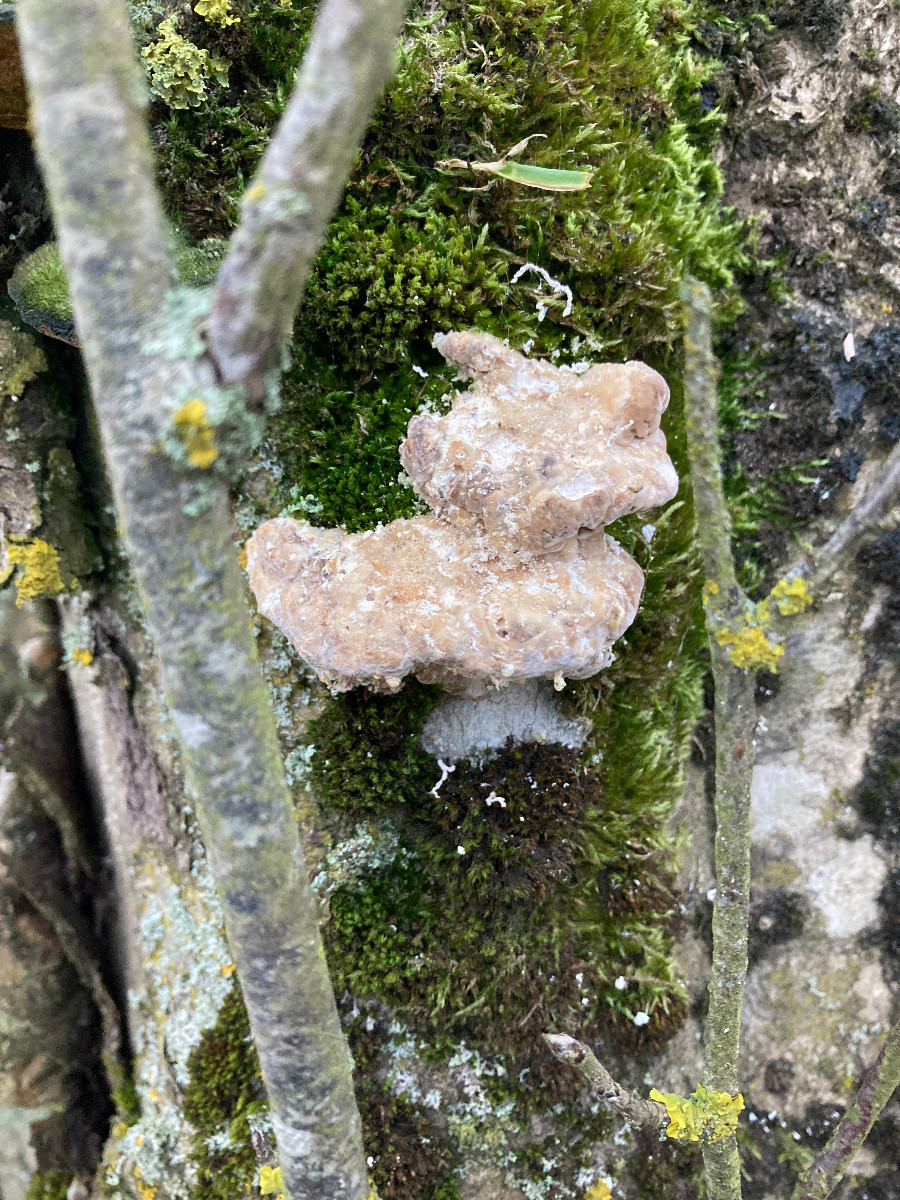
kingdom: Fungi
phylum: Basidiomycota
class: Agaricomycetes
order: Polyporales
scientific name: Polyporales
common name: poresvampordenen
